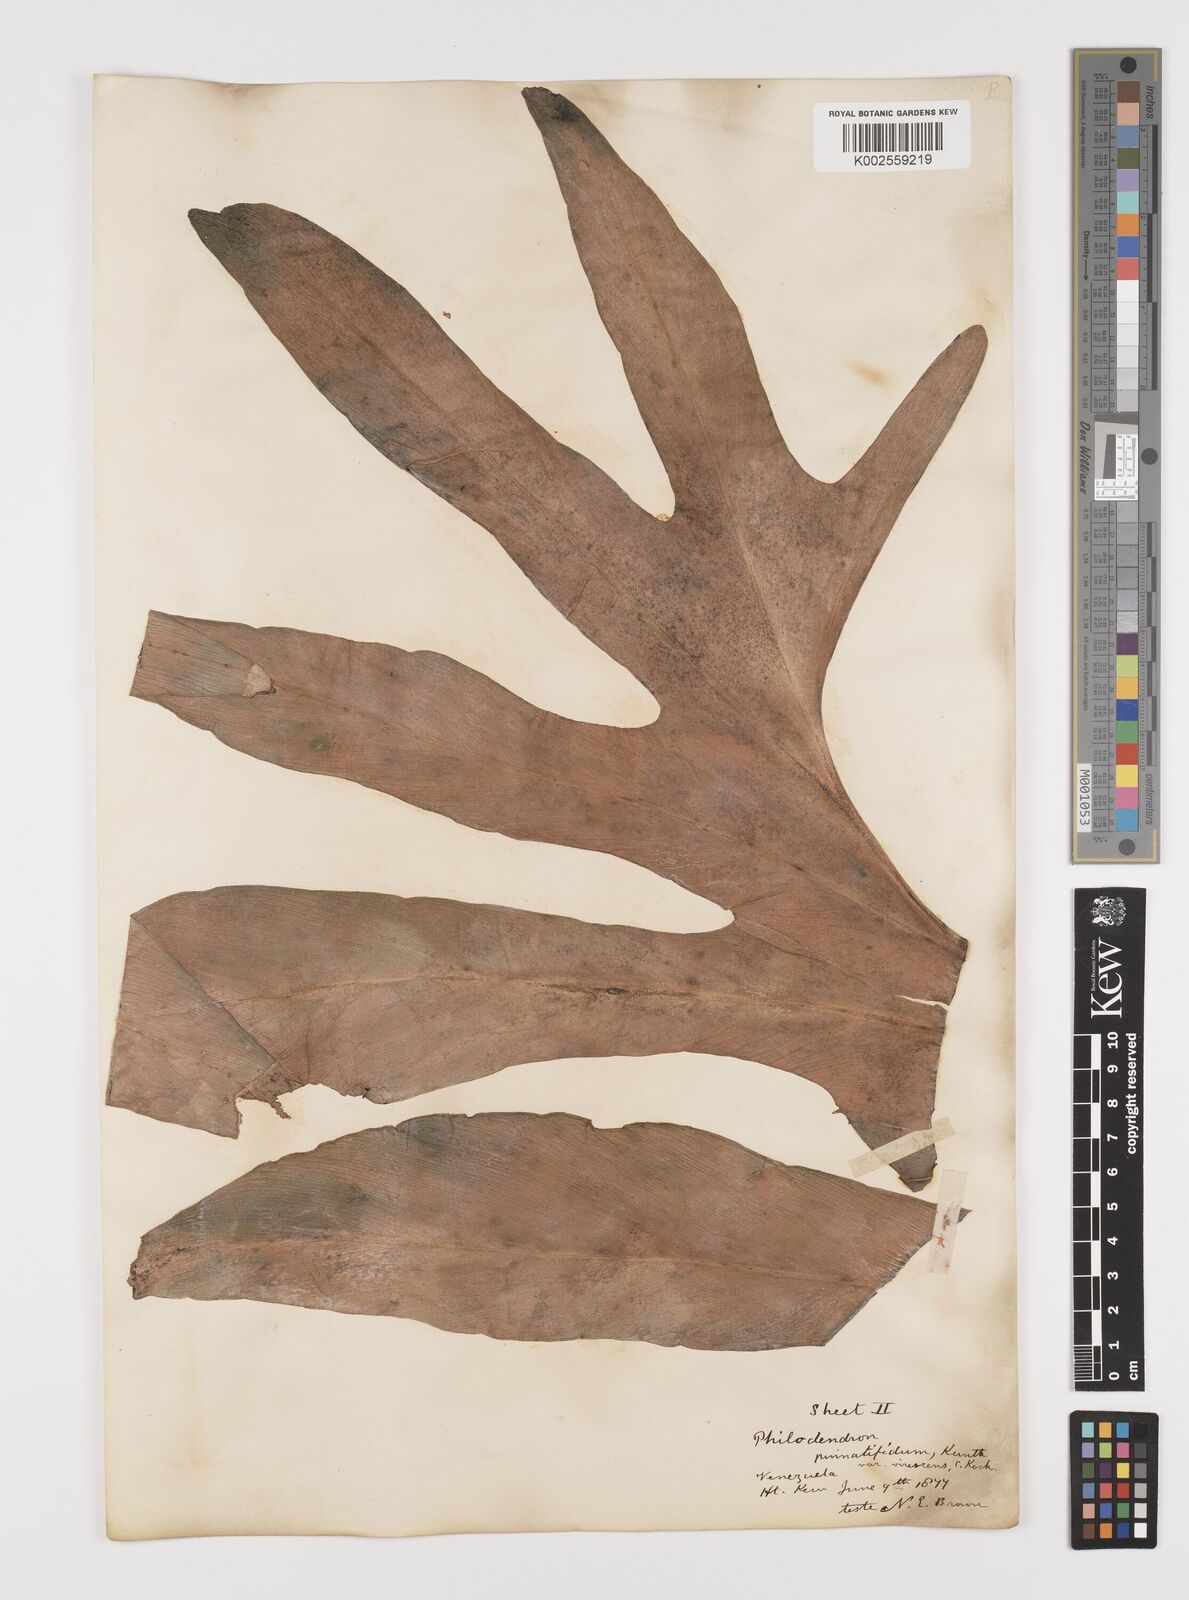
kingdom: Plantae
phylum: Tracheophyta
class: Liliopsida
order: Alismatales
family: Araceae
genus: Philodendron
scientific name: Philodendron pinnatifidum
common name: Comb-leaf philodendron
